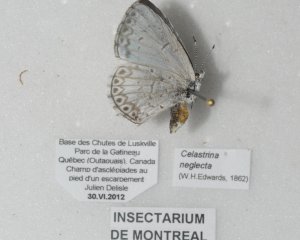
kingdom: Animalia
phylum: Arthropoda
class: Insecta
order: Lepidoptera
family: Lycaenidae
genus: Cyaniris
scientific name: Cyaniris neglecta
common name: Summer Azure
